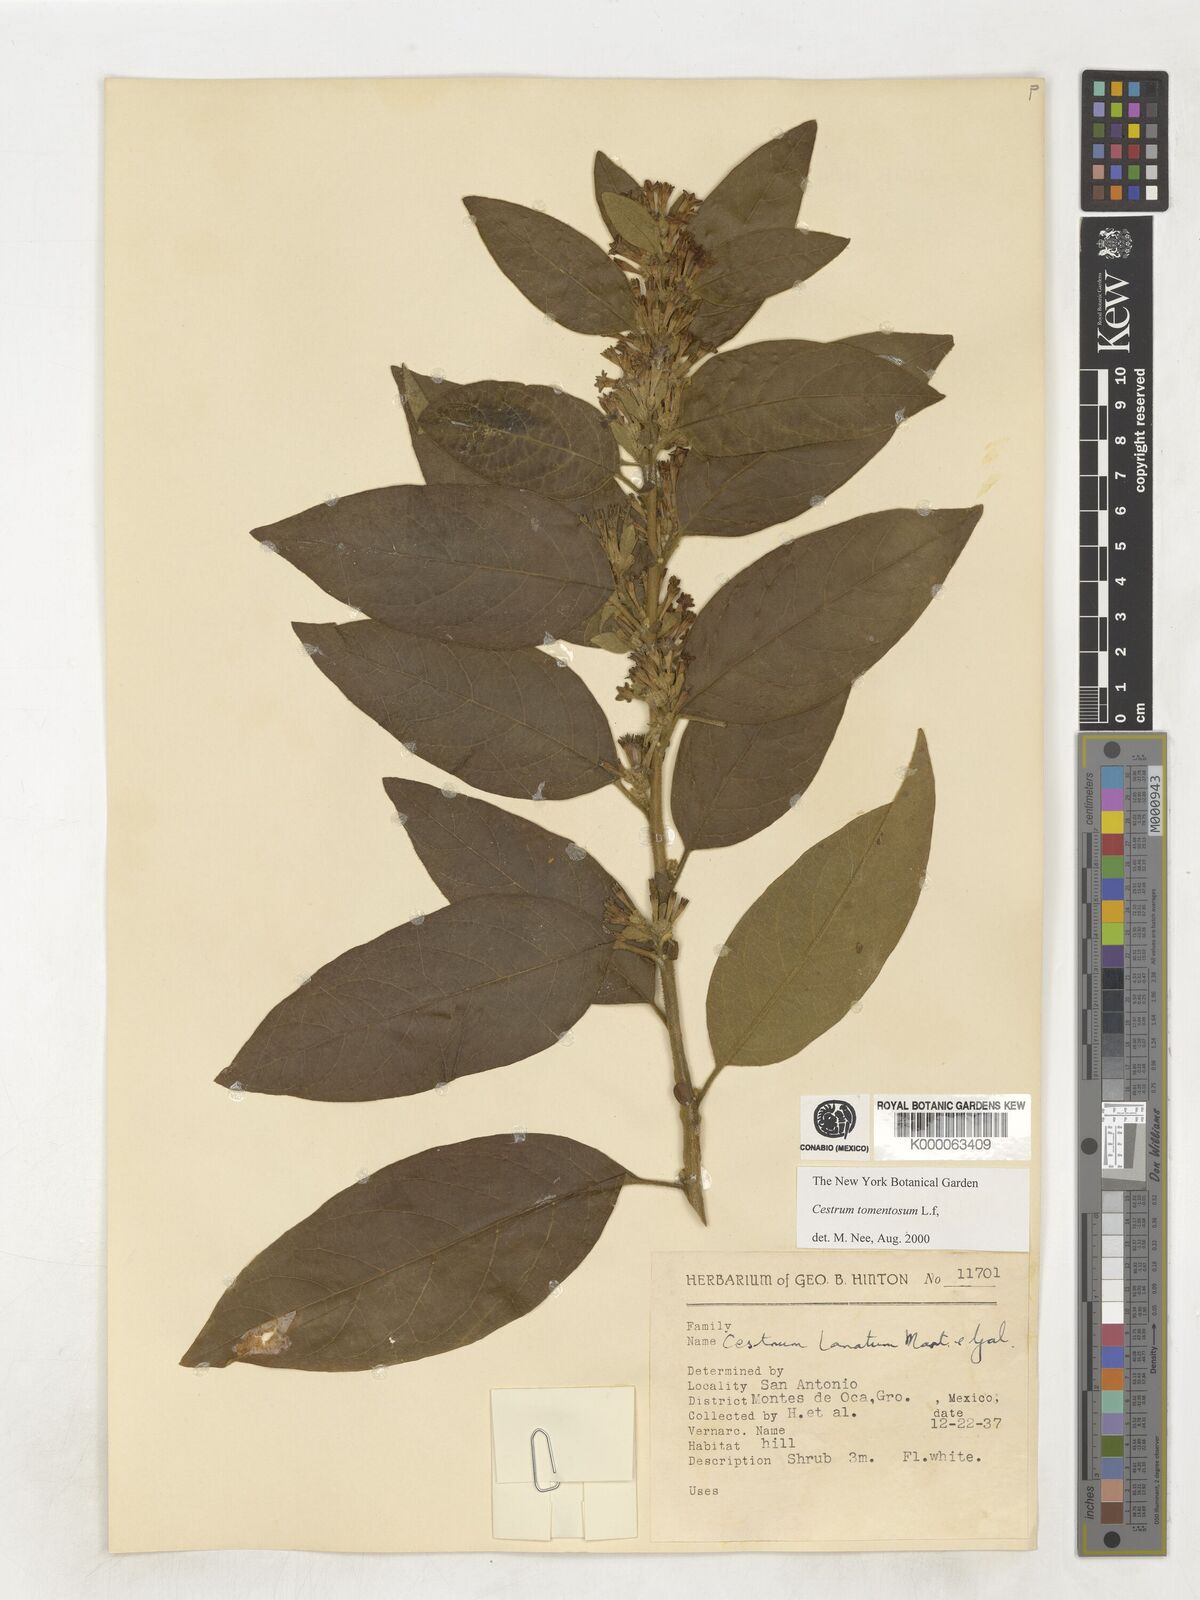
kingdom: Plantae
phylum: Tracheophyta
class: Magnoliopsida
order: Solanales
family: Solanaceae
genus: Cestrum
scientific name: Cestrum tomentosum
